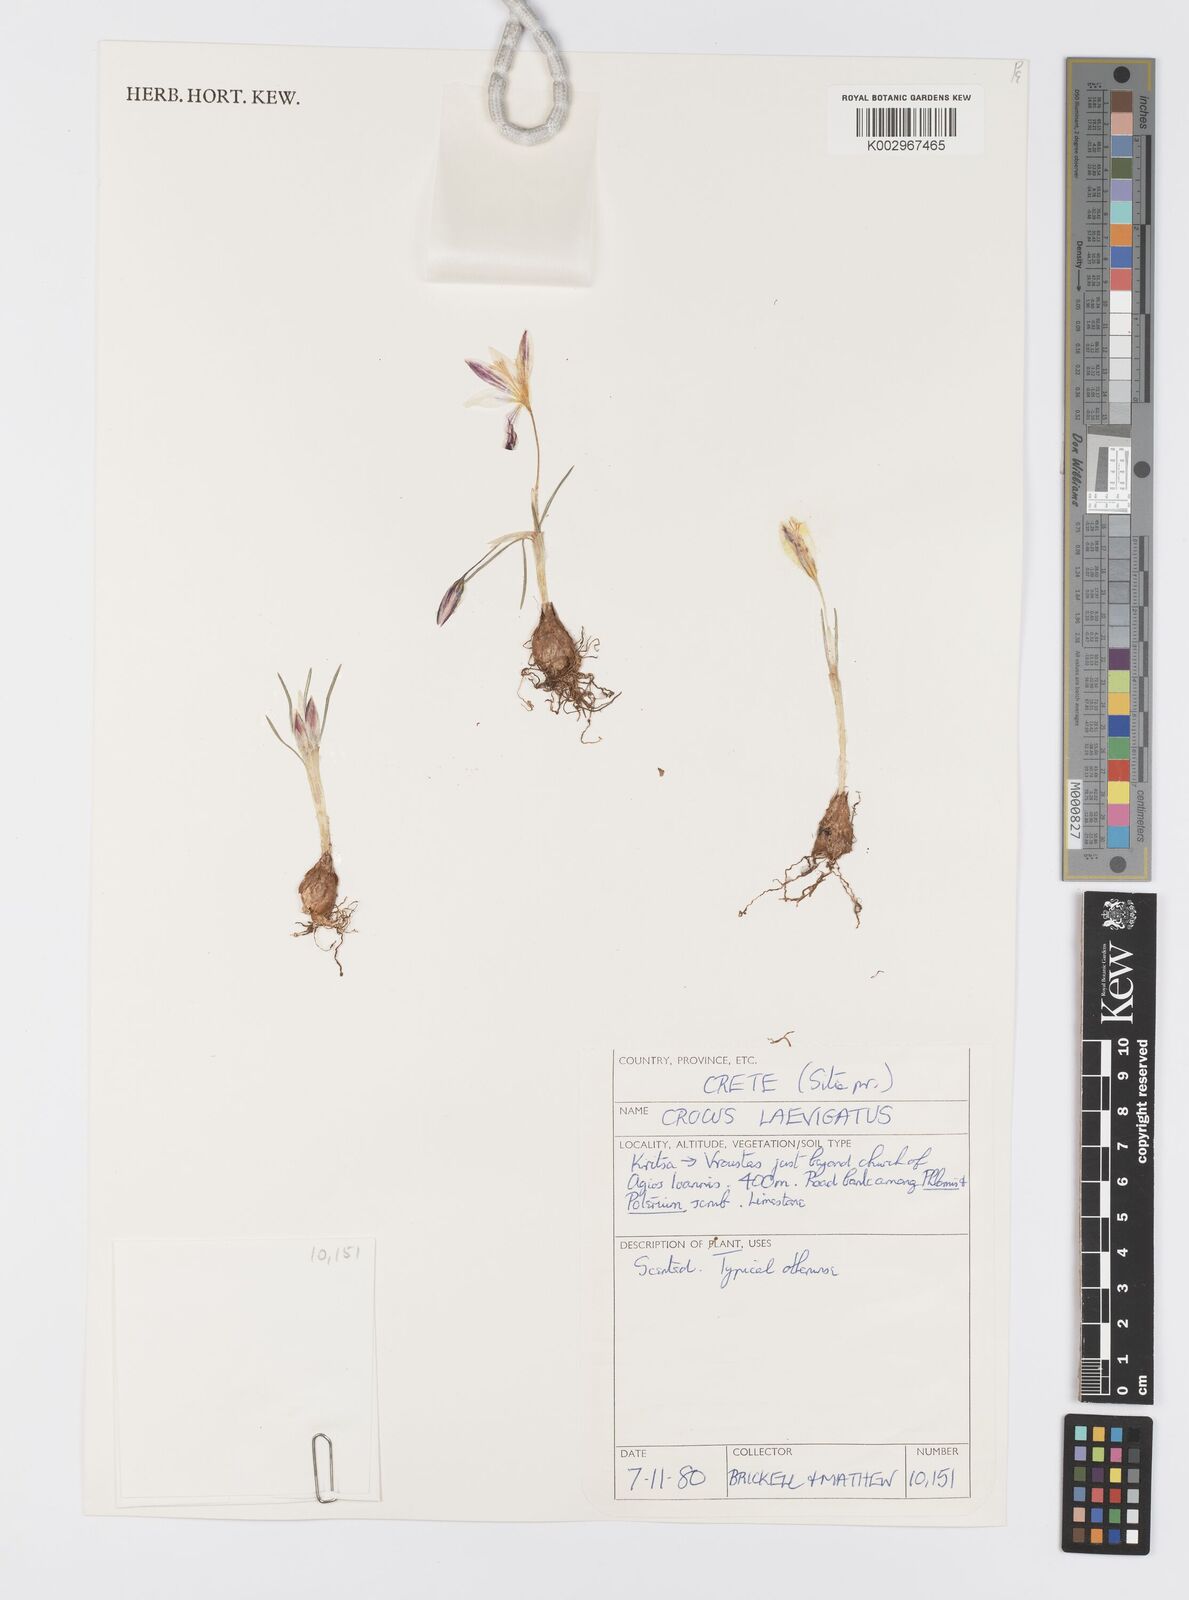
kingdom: Plantae
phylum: Tracheophyta
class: Liliopsida
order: Asparagales
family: Iridaceae
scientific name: Iridaceae
